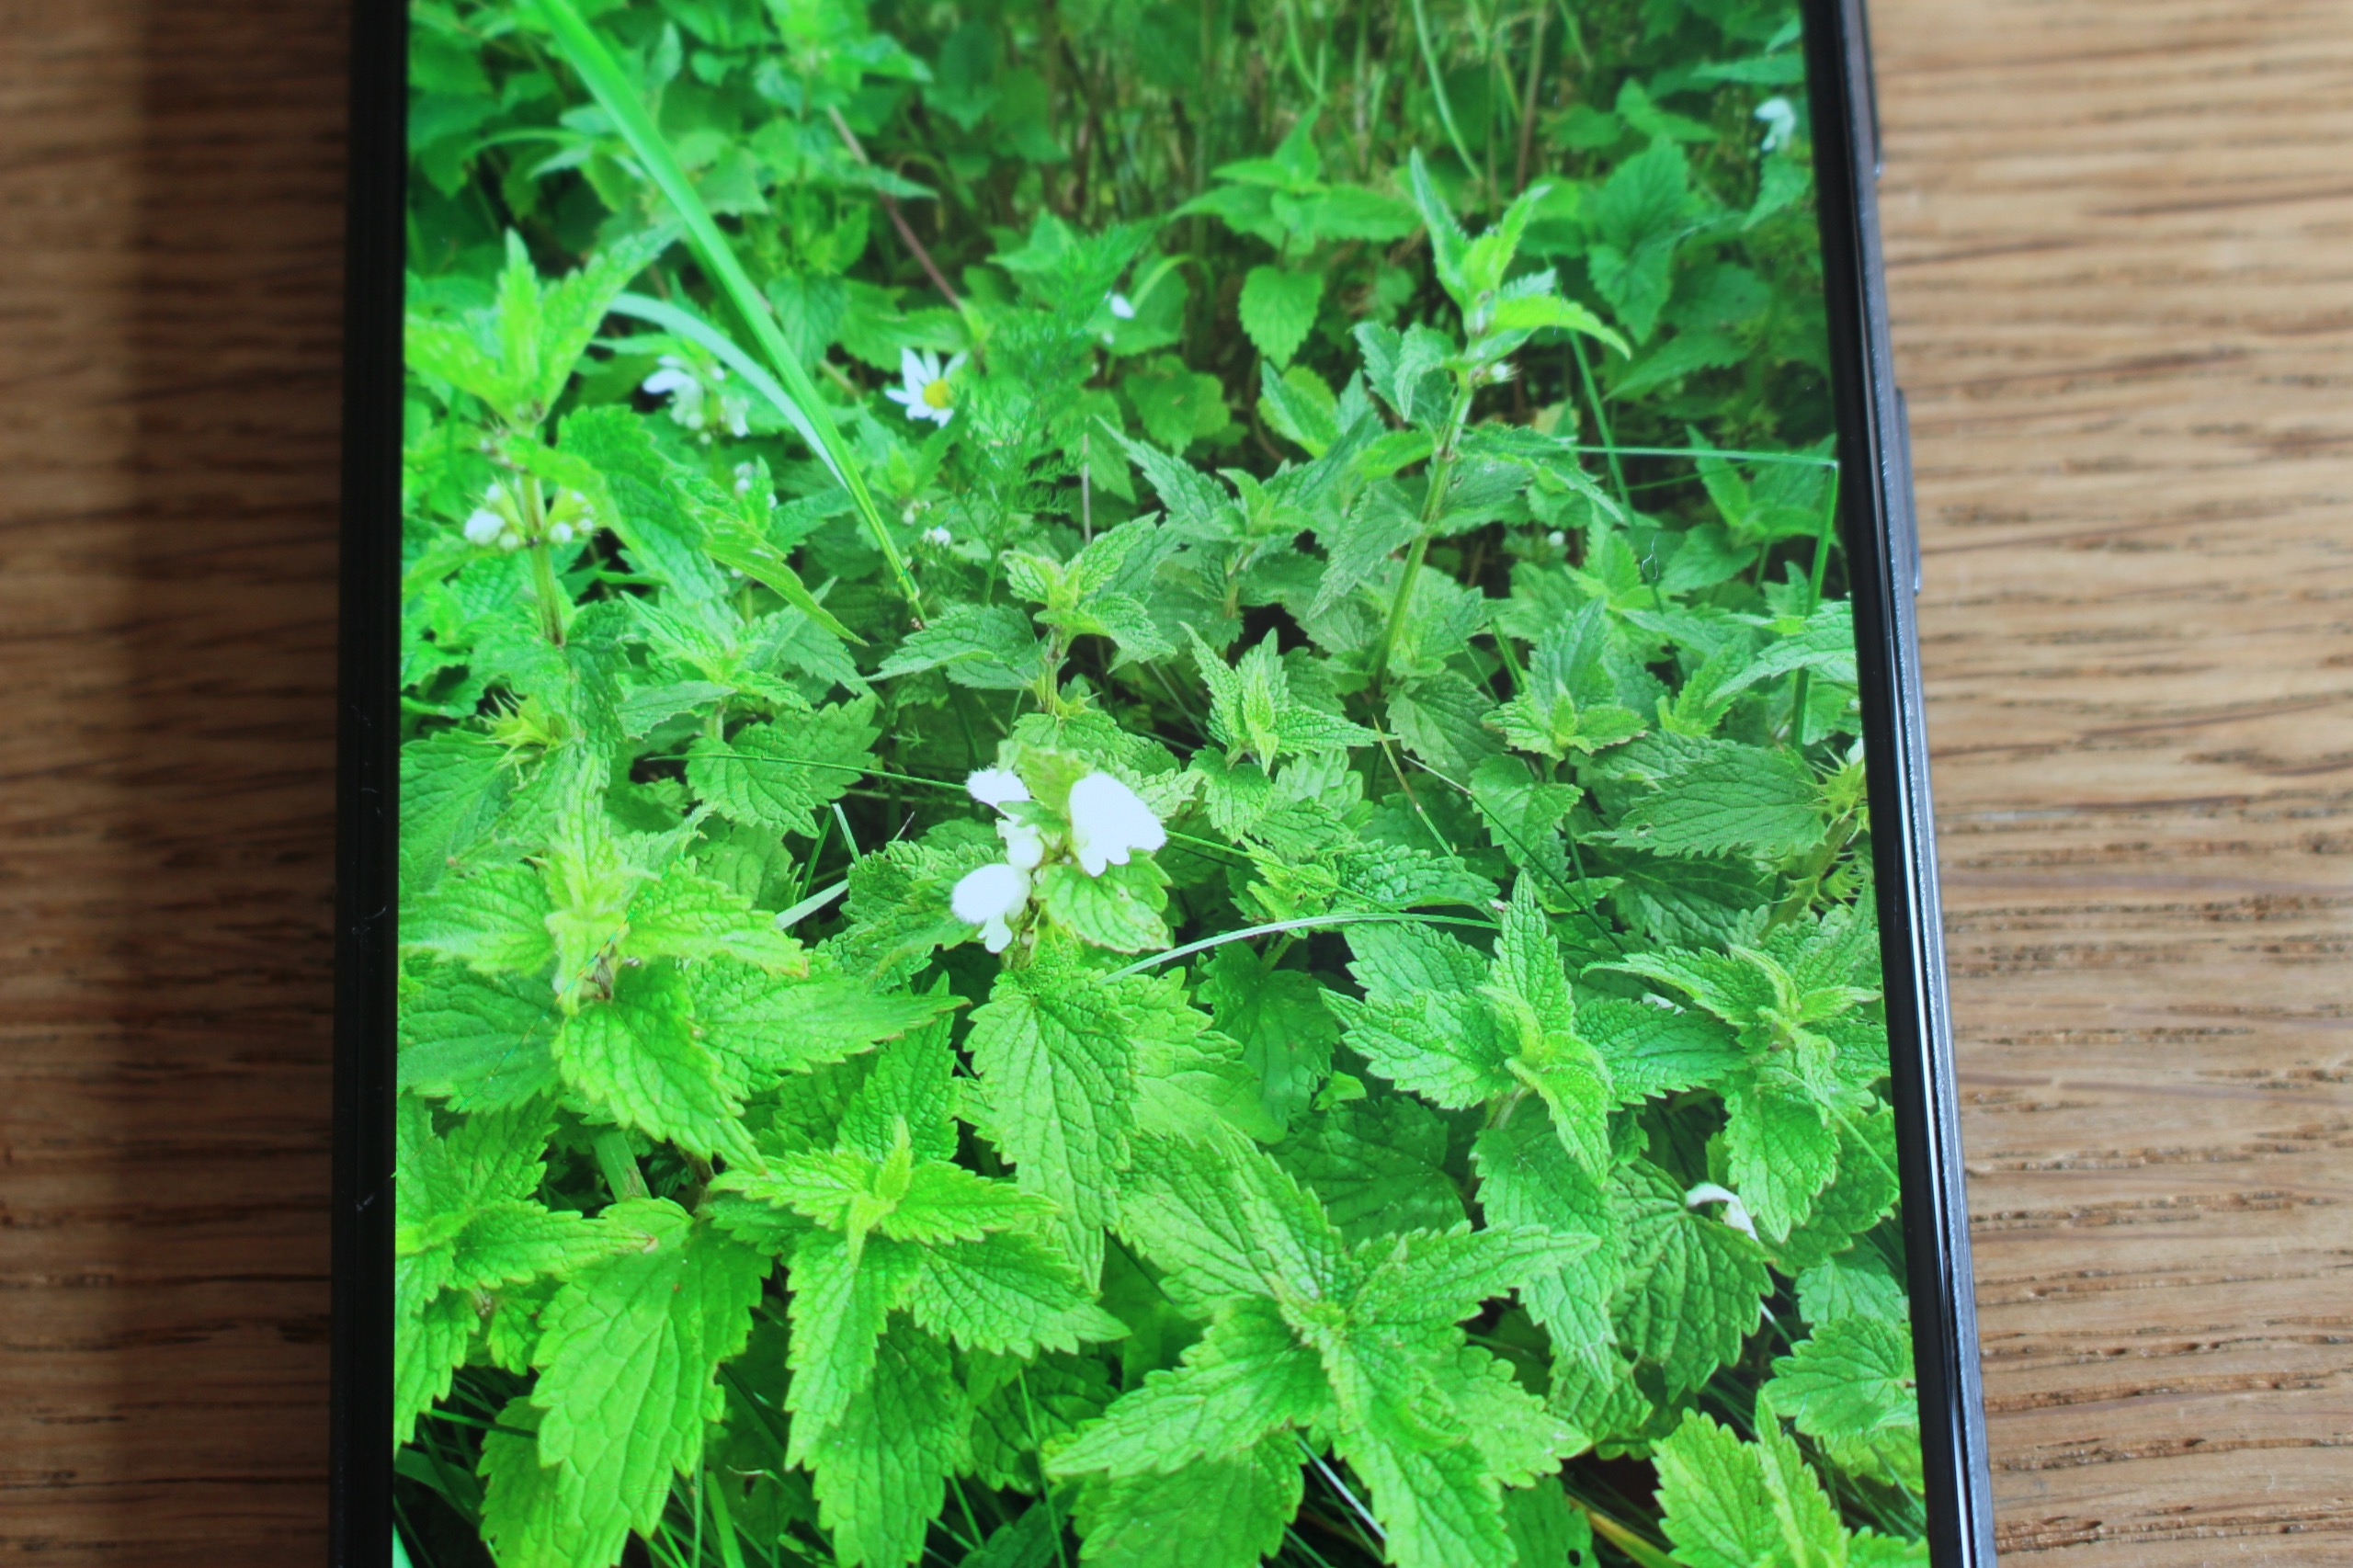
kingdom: Plantae
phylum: Tracheophyta
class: Magnoliopsida
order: Lamiales
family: Lamiaceae
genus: Lamium
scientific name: Lamium album
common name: Døvnælde
